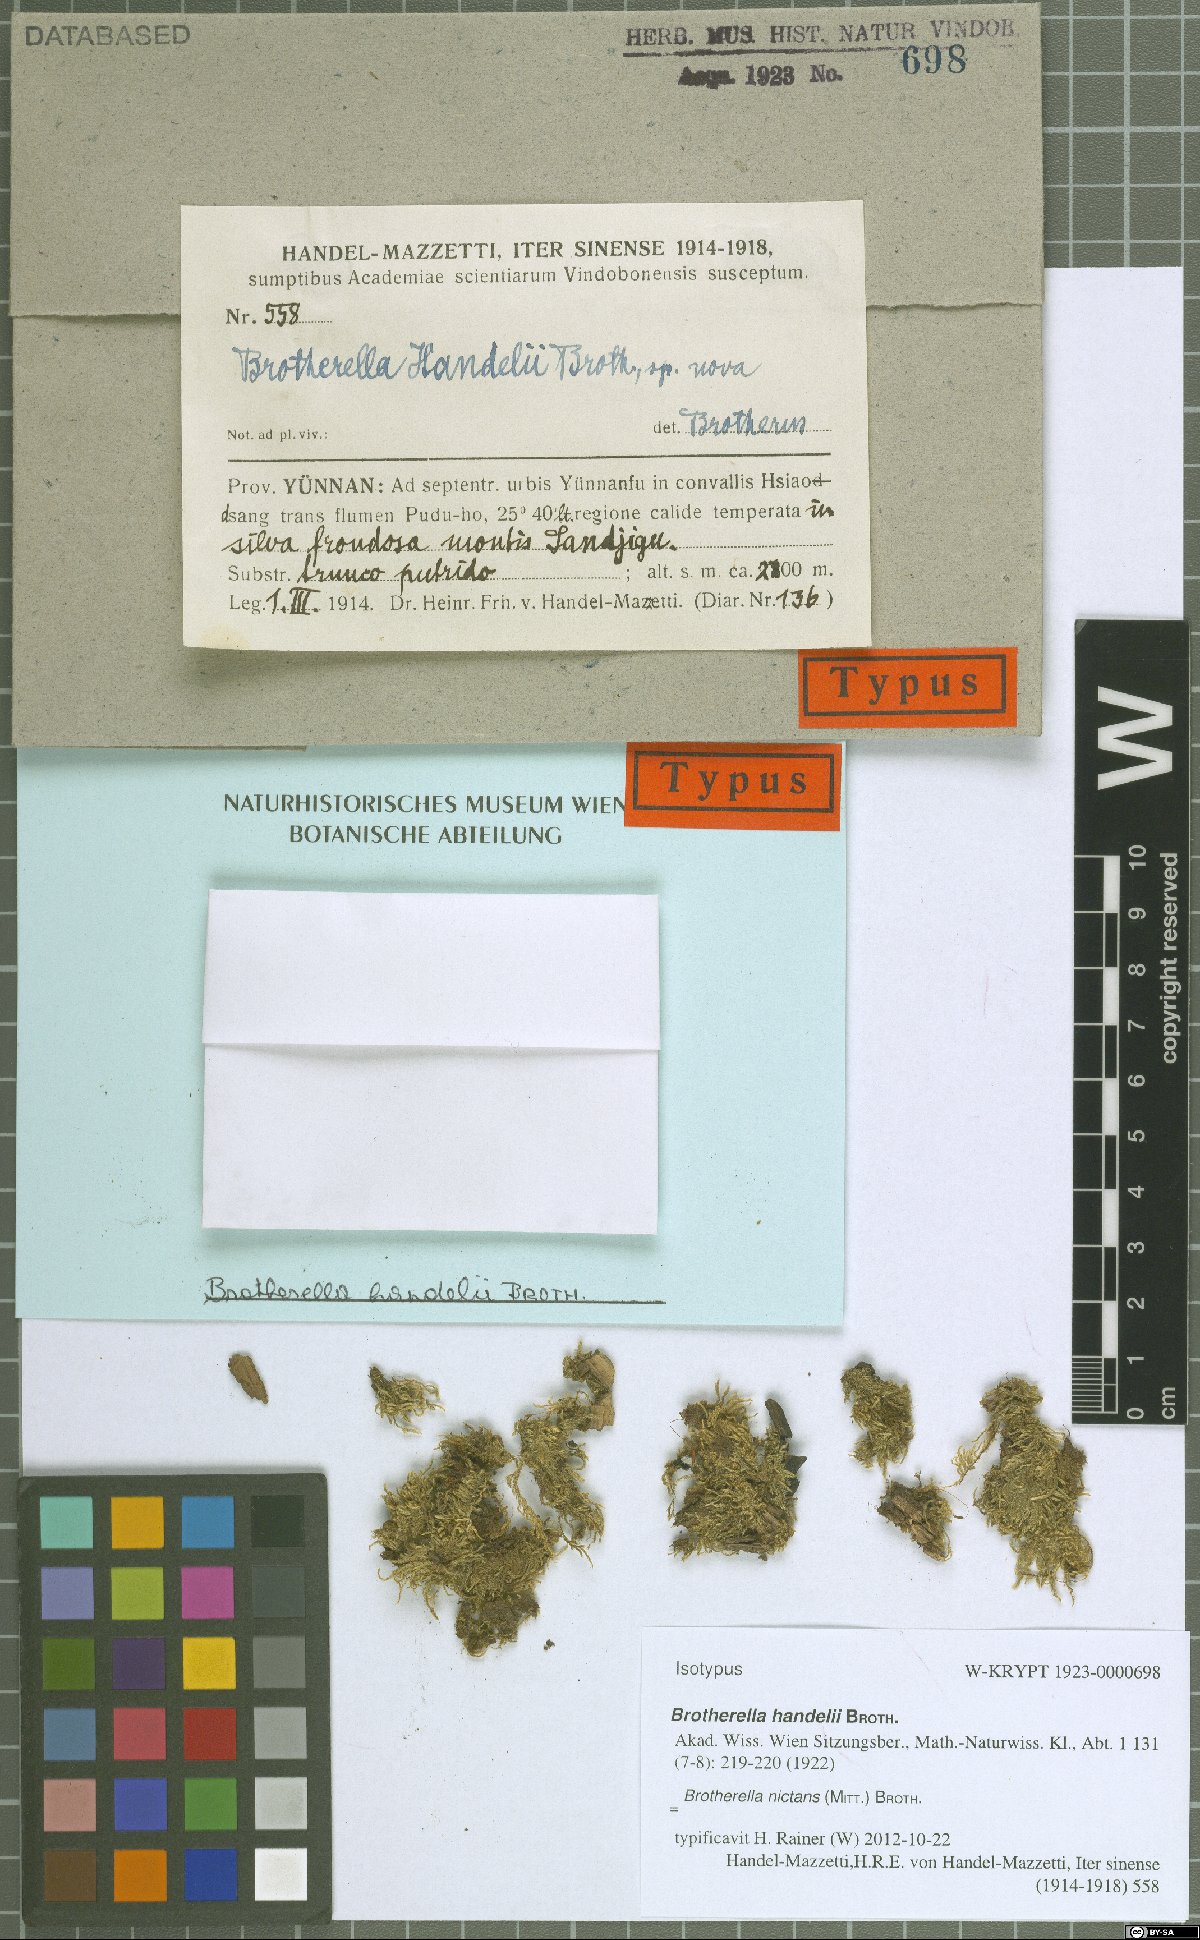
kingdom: Plantae
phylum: Bryophyta
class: Bryopsida
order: Hypnales
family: Pylaisiadelphaceae
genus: Brotherella
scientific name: Brotherella nictans
